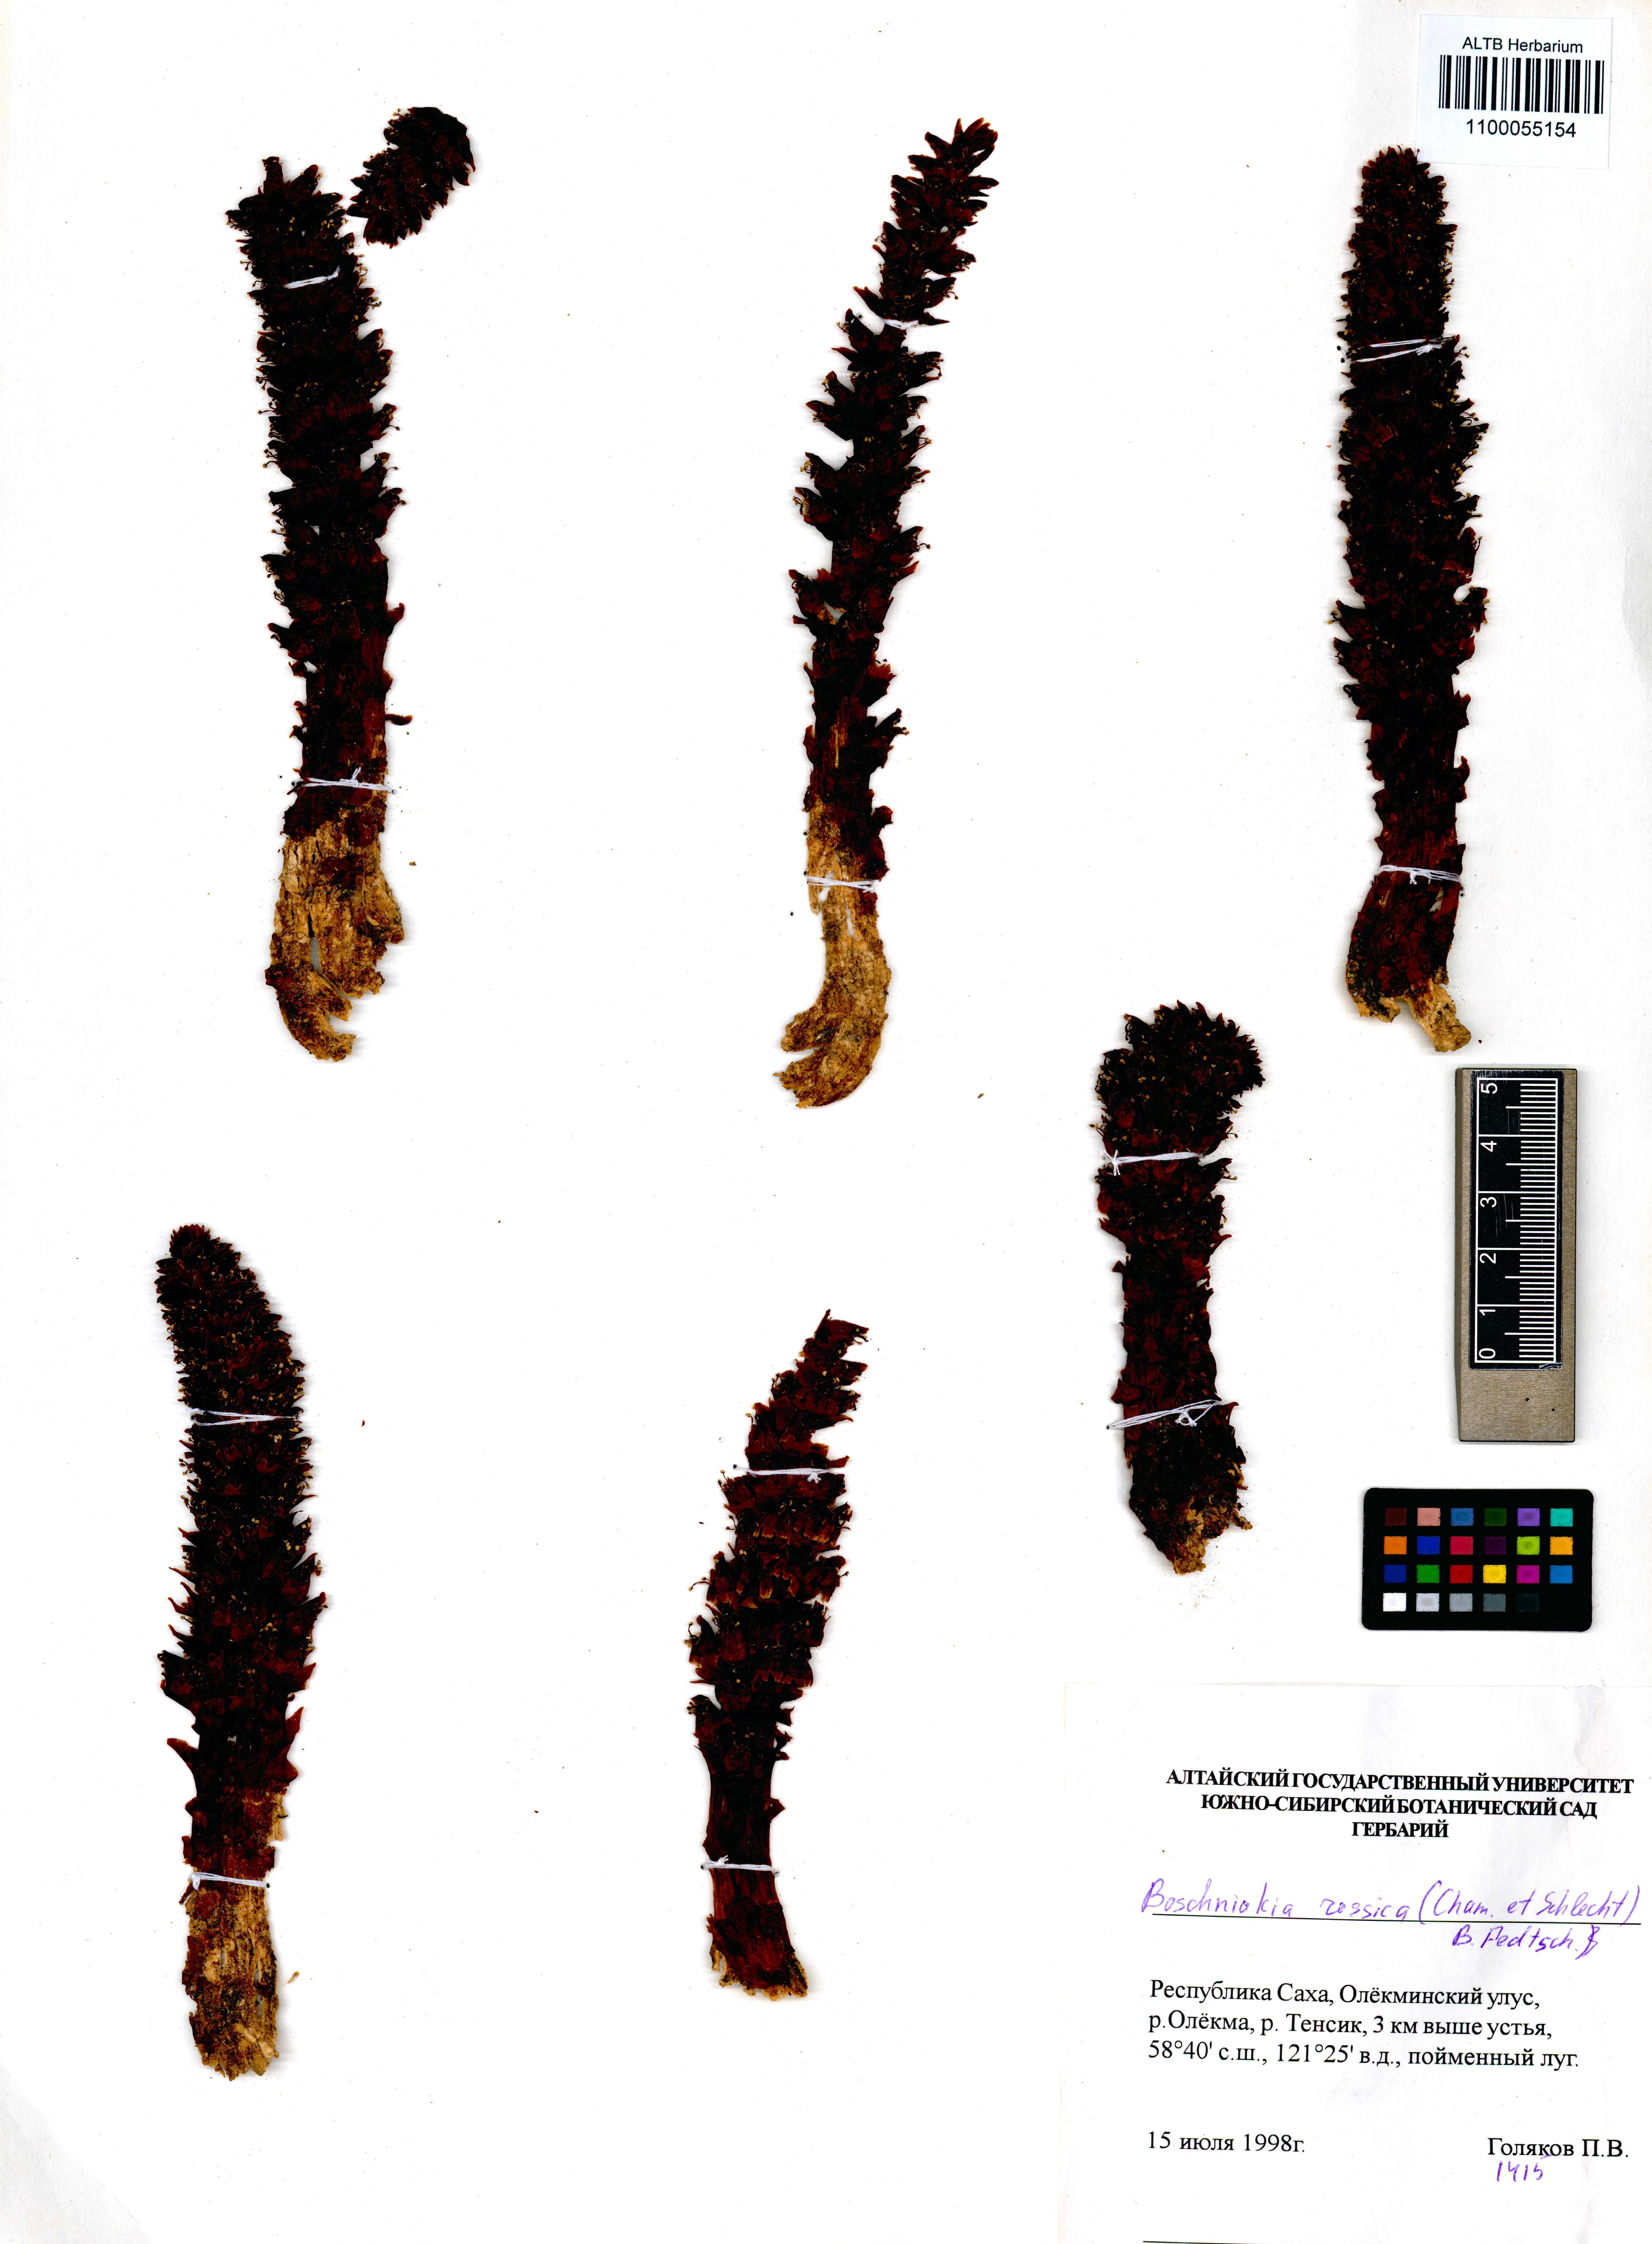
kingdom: Plantae
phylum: Tracheophyta
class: Magnoliopsida
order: Lamiales
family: Orobanchaceae
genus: Boschniakia
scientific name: Boschniakia rossica
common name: Poque
